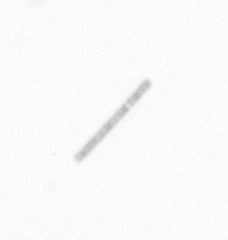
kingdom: Chromista
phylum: Ochrophyta
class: Bacillariophyceae
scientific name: Bacillariophyceae
